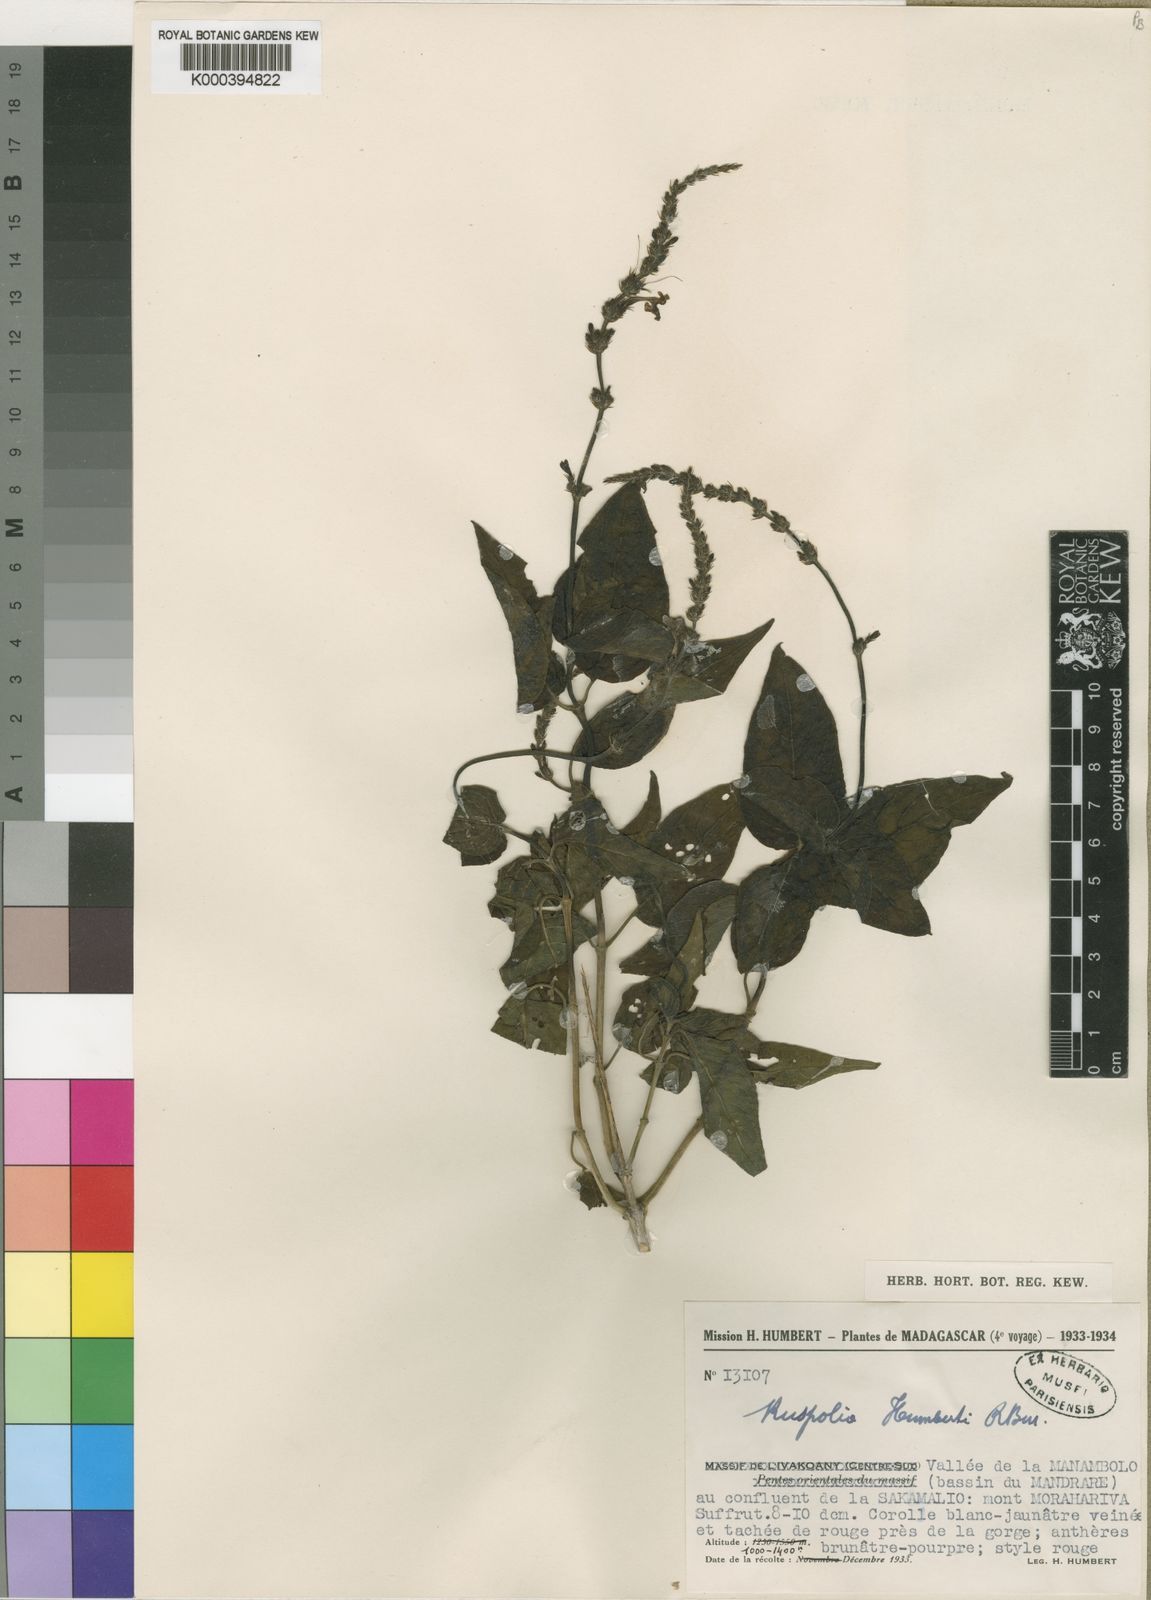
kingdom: Plantae
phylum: Tracheophyta
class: Magnoliopsida
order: Lamiales
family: Acanthaceae
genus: Ruspolia
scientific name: Ruspolia humbertii
